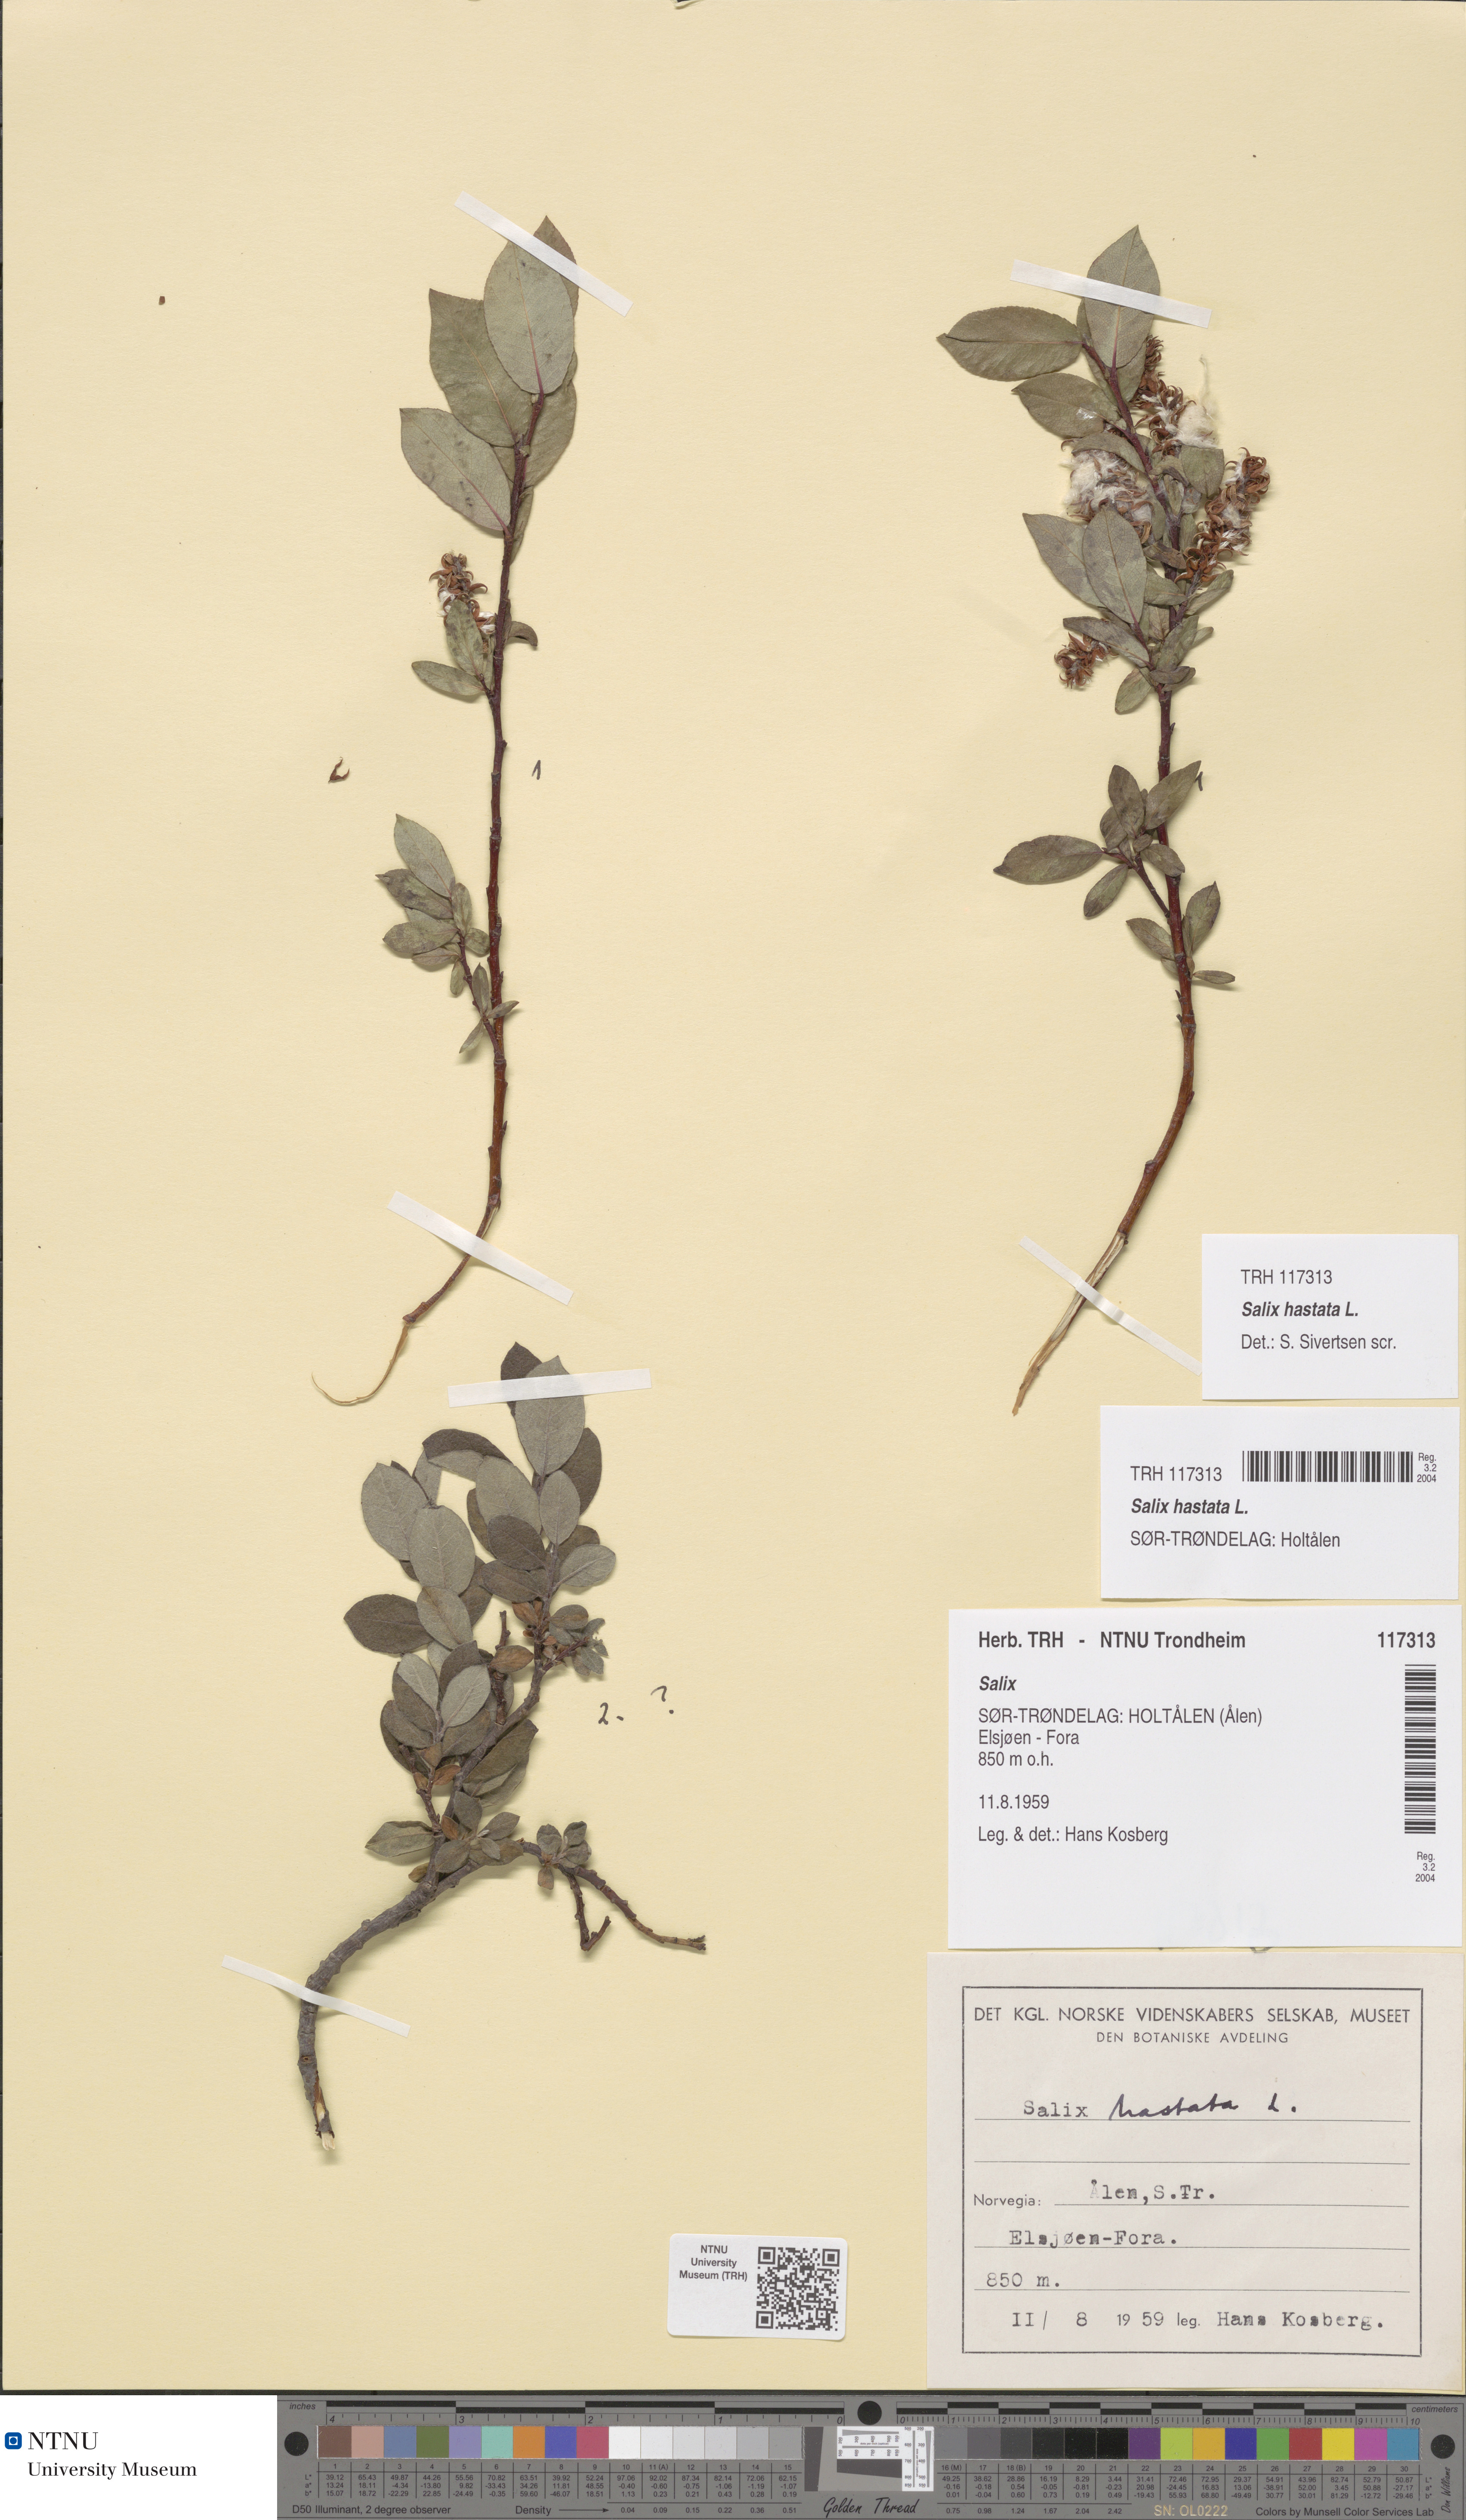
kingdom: Plantae
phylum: Tracheophyta
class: Magnoliopsida
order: Malpighiales
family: Salicaceae
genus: Salix
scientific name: Salix hastata
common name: Halberd willow
